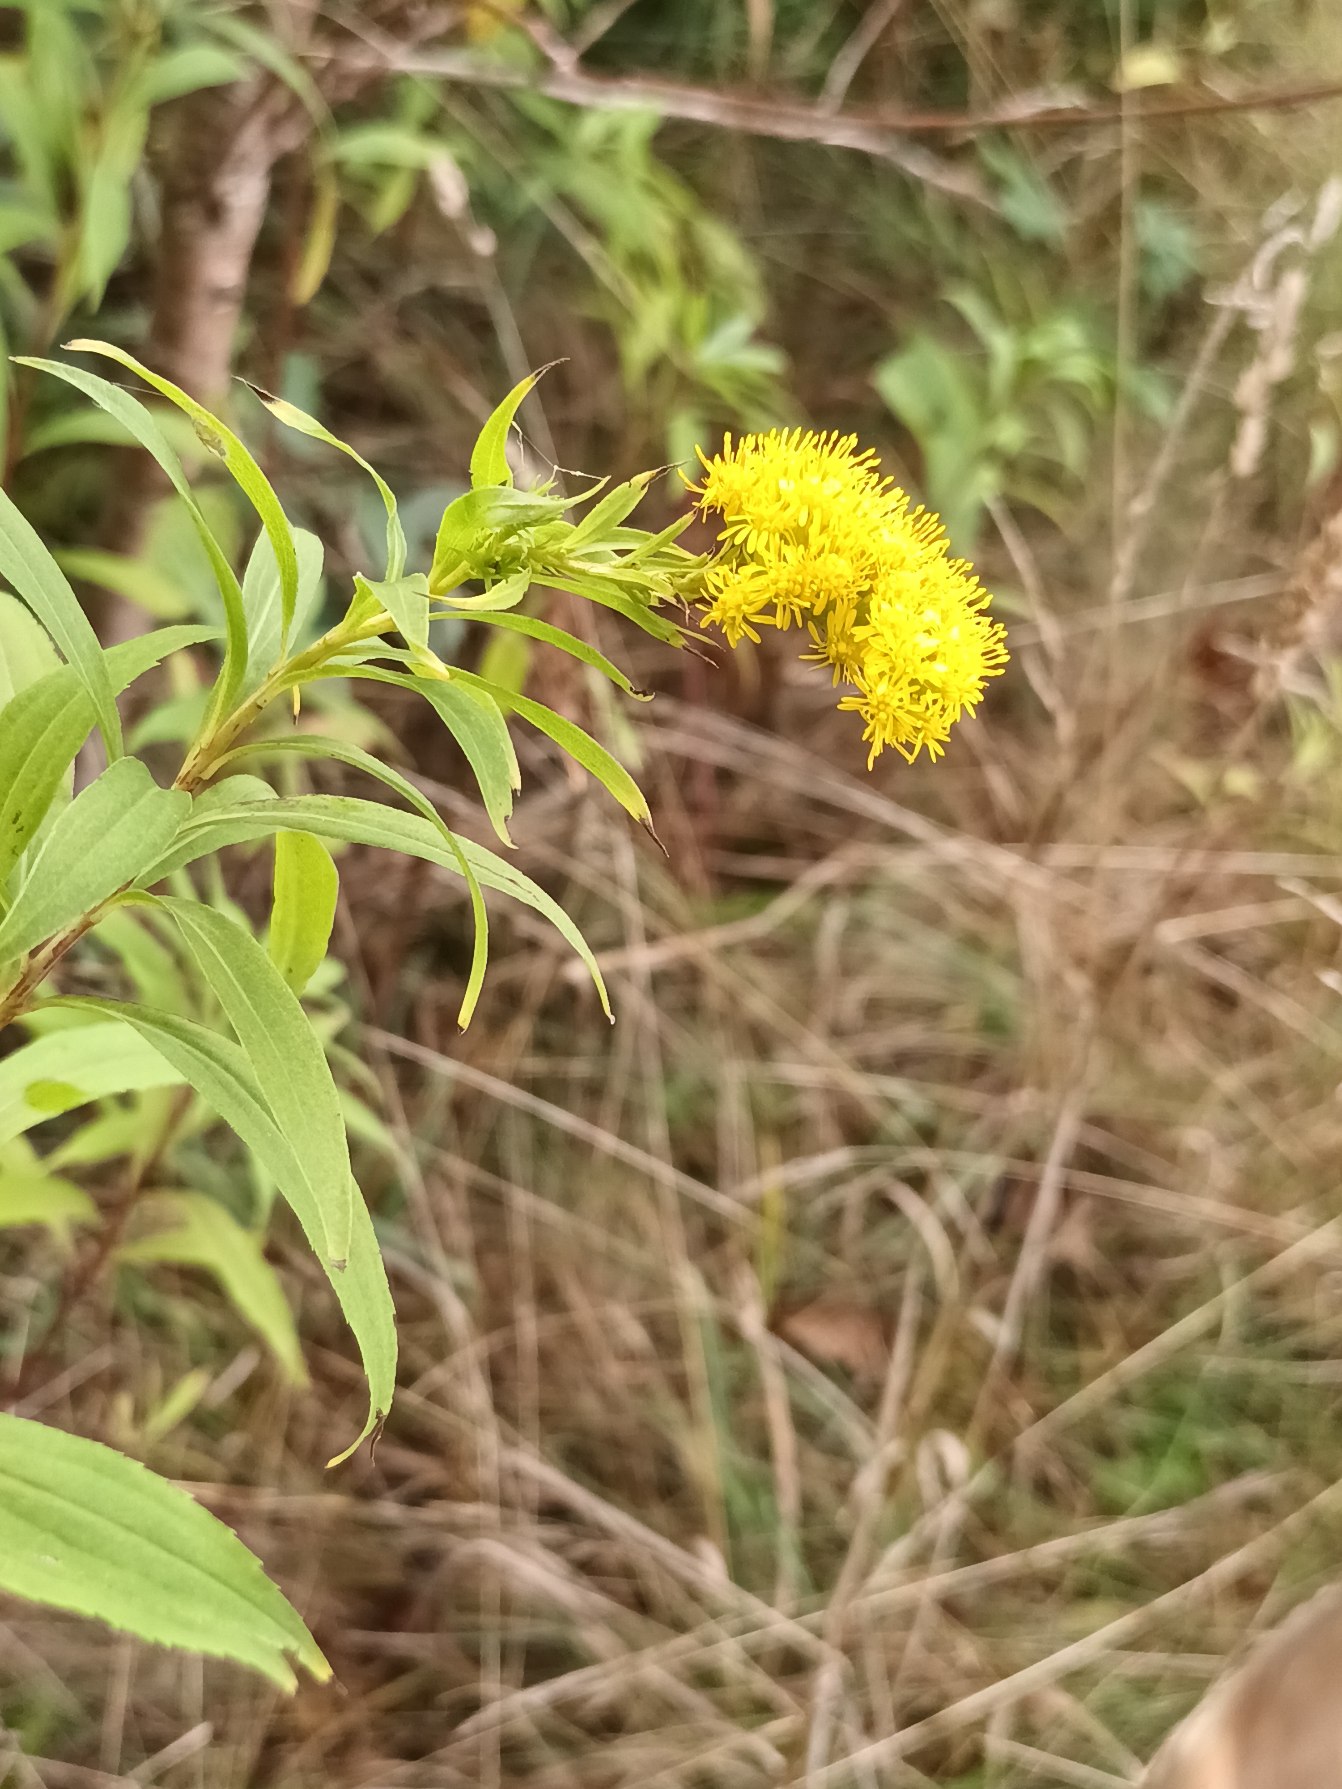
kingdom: Plantae
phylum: Tracheophyta
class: Magnoliopsida
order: Asterales
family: Asteraceae
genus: Solidago
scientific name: Solidago gigantea
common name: Sildig gyldenris
